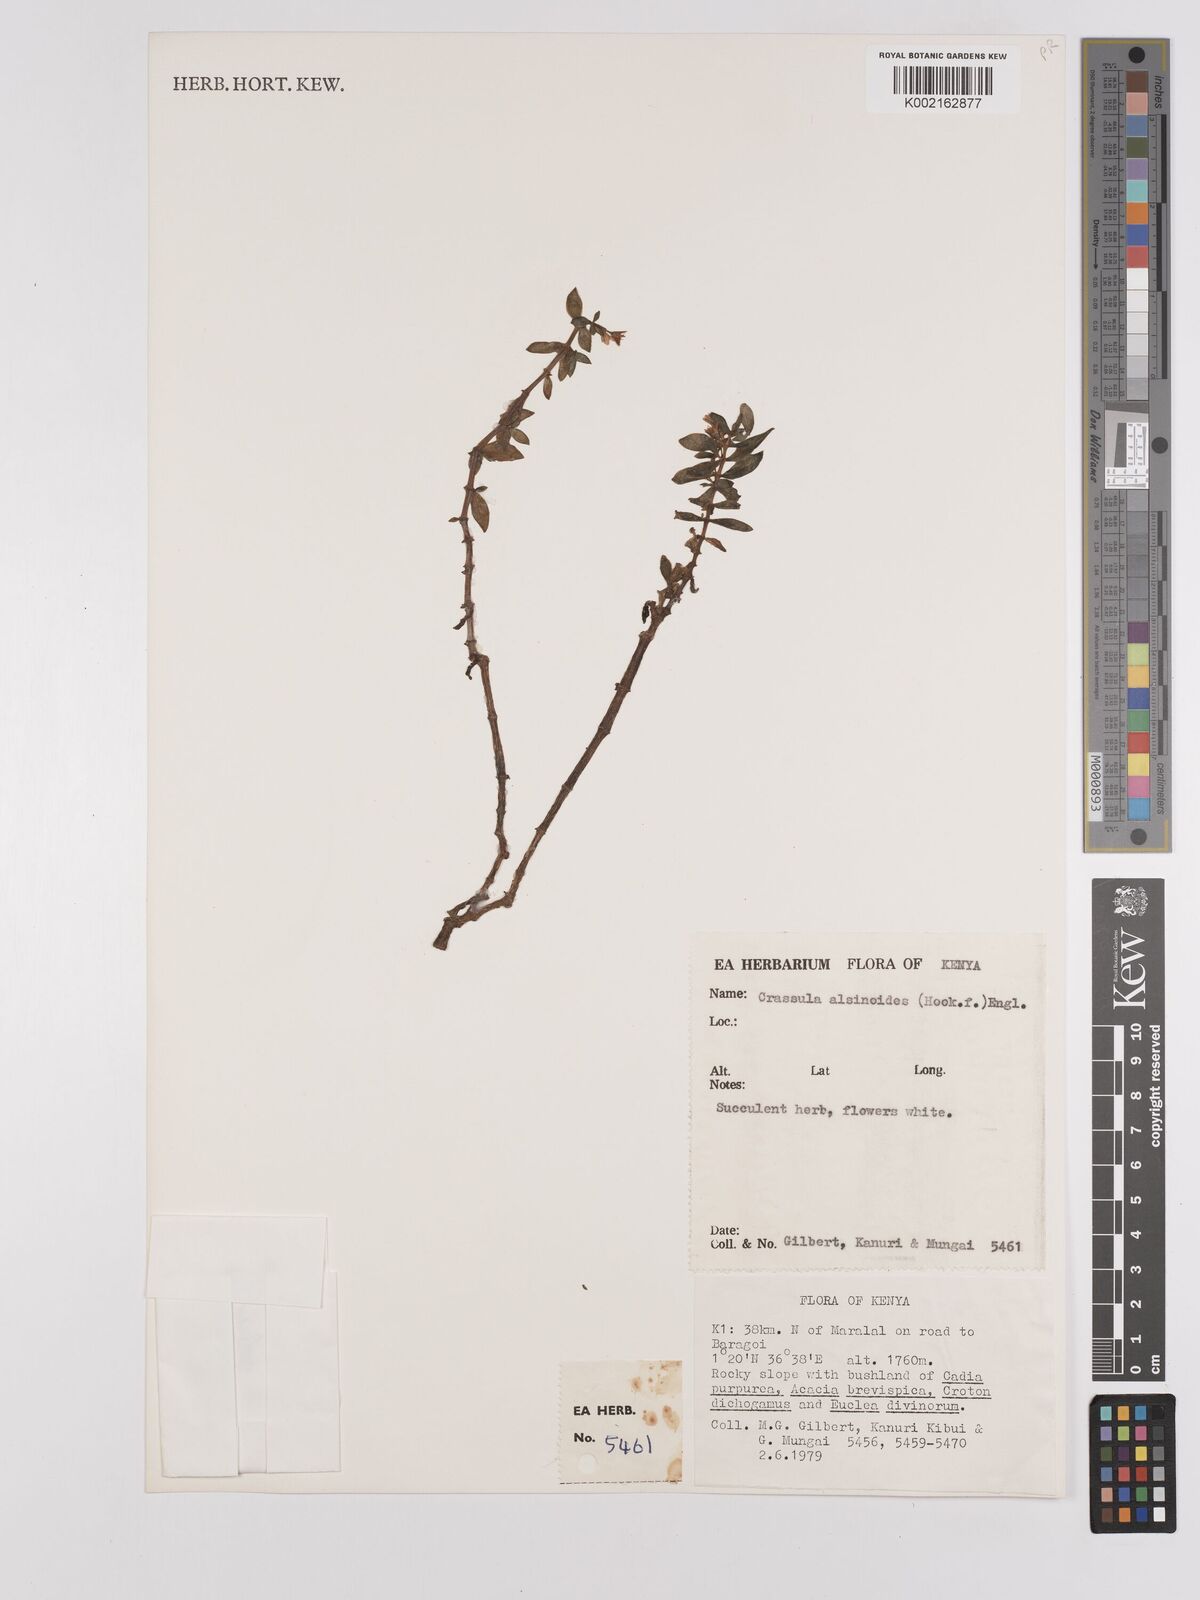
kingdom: Plantae
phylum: Tracheophyta
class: Magnoliopsida
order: Saxifragales
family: Crassulaceae
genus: Crassula
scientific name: Crassula alsinoides
